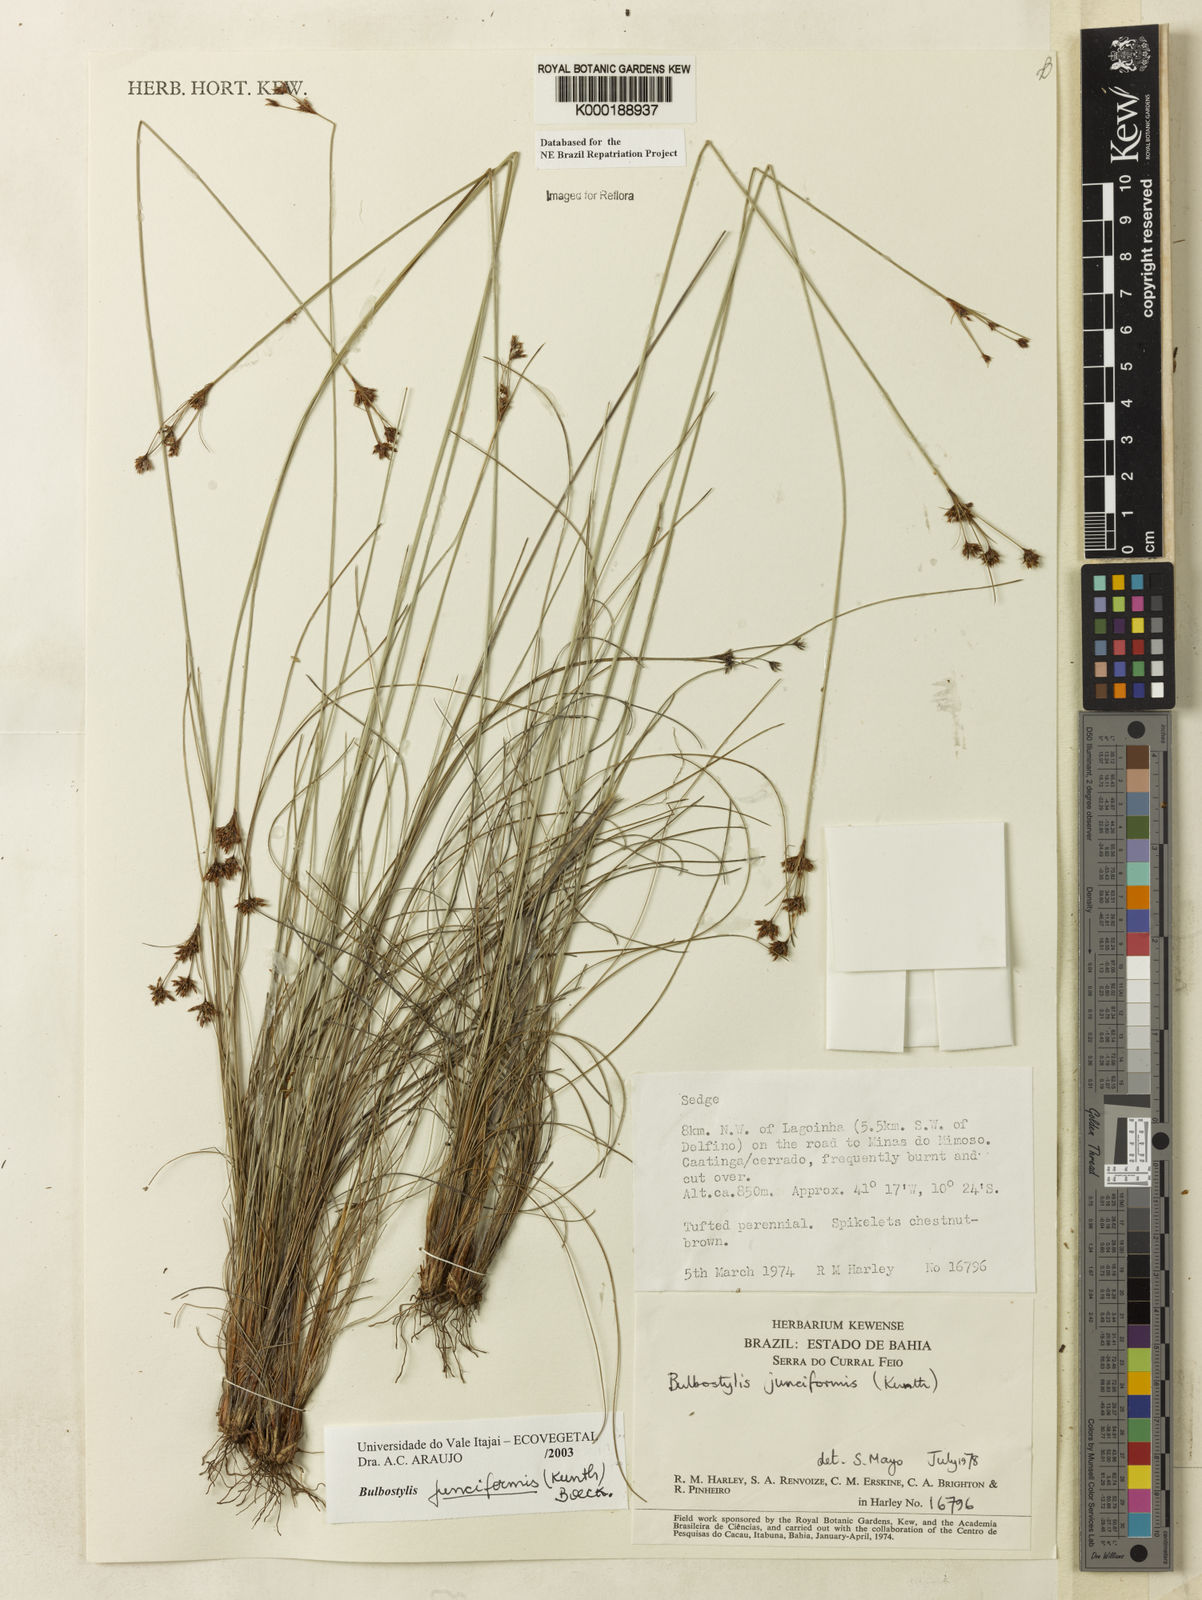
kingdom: Plantae
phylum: Tracheophyta
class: Liliopsida
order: Poales
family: Cyperaceae
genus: Bulbostylis
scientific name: Bulbostylis
